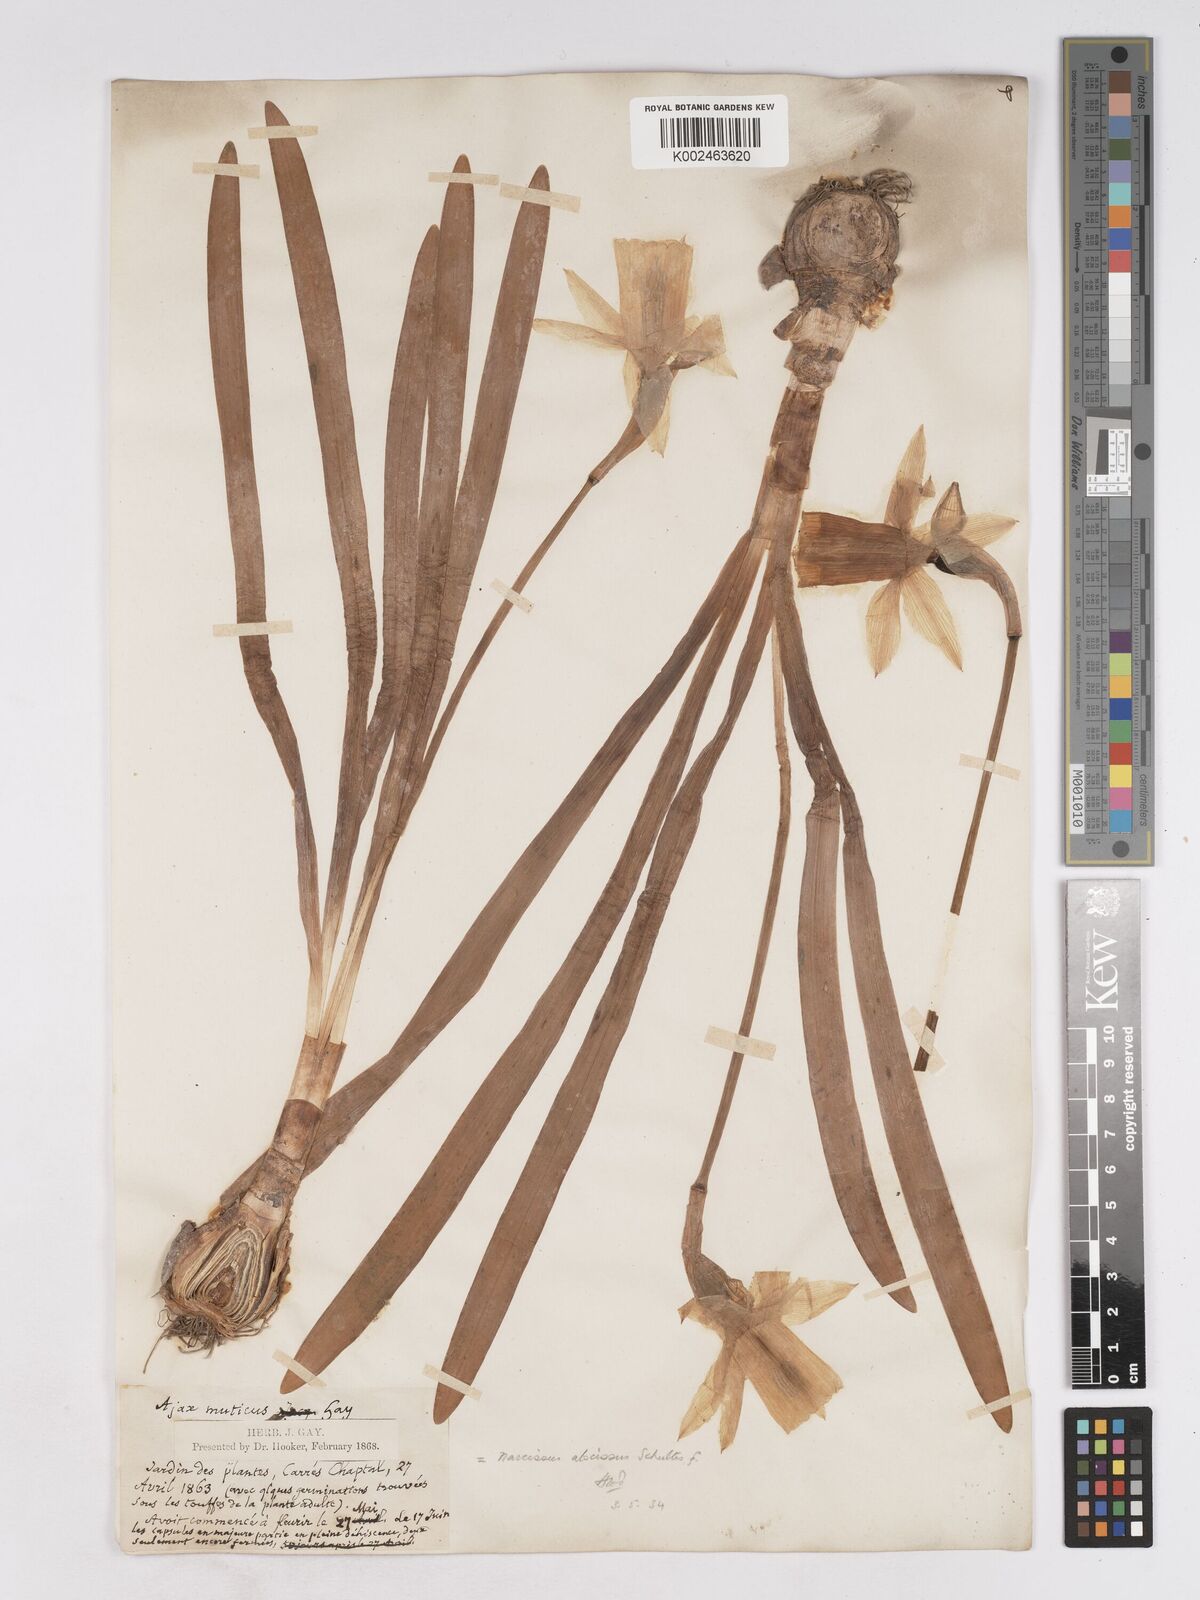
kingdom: Plantae
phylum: Tracheophyta
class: Liliopsida
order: Asparagales
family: Amaryllidaceae
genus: Narcissus
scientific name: Narcissus abscissus
